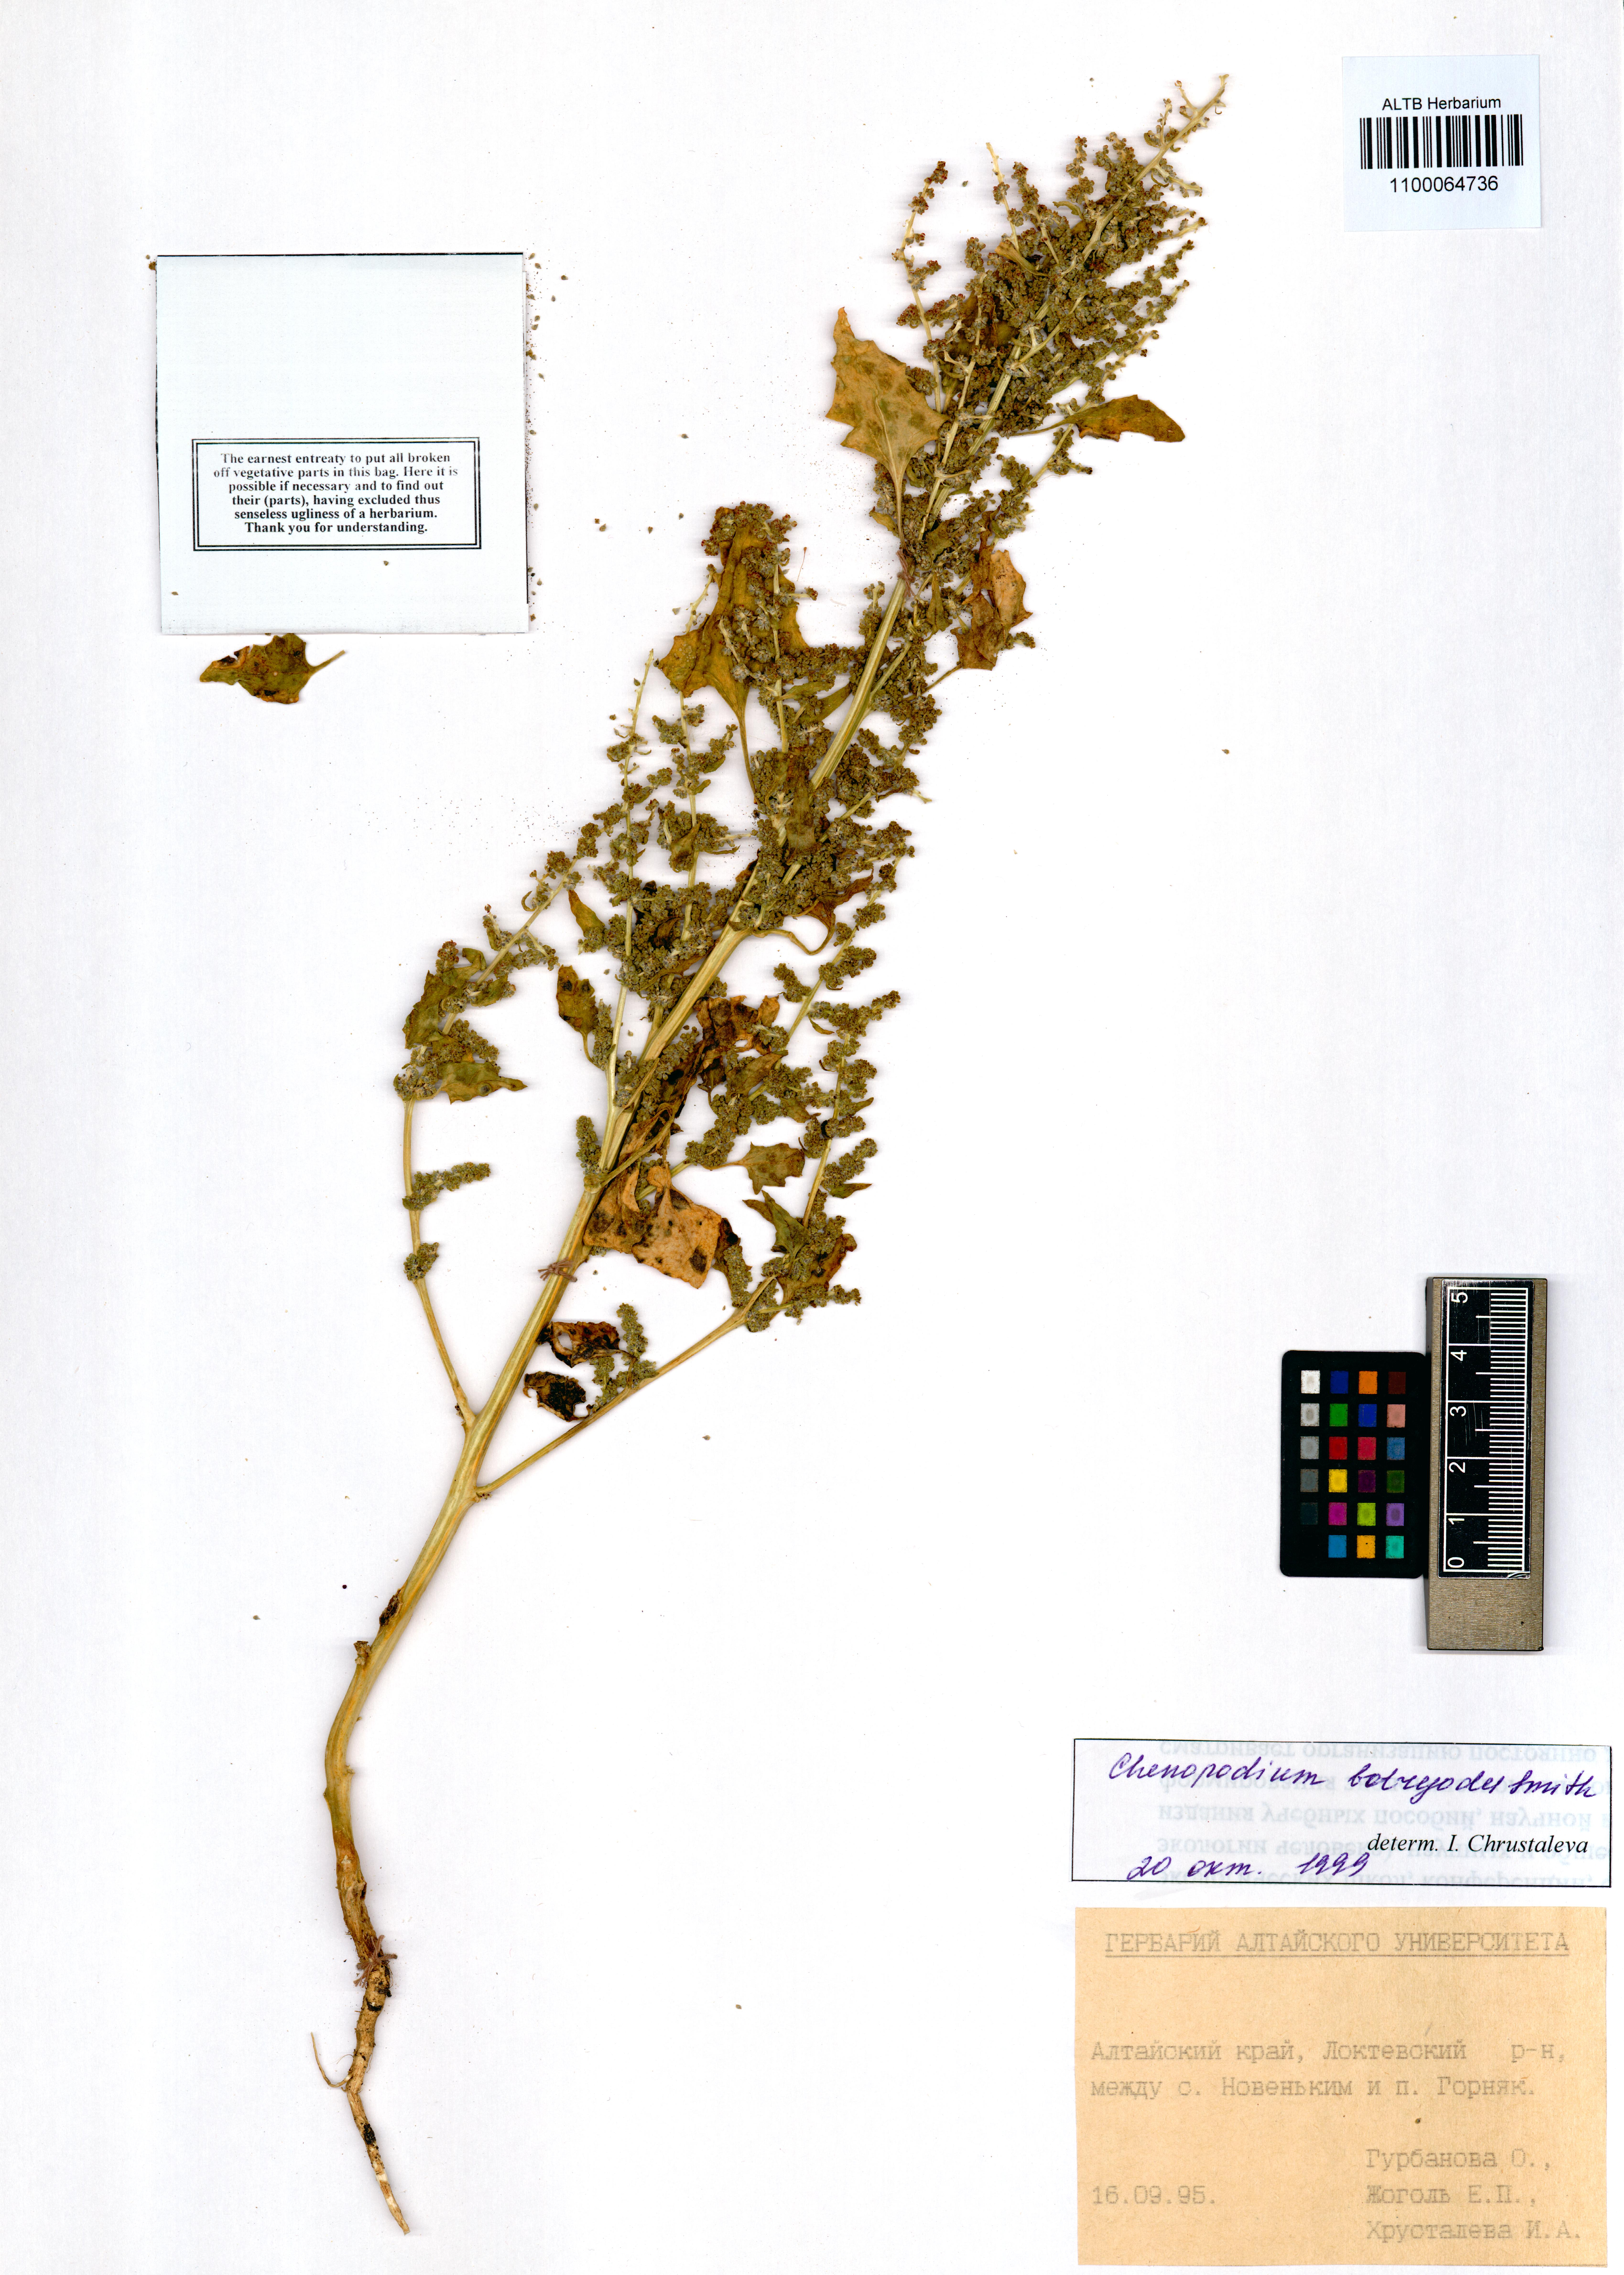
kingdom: Plantae
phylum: Tracheophyta
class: Magnoliopsida
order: Caryophyllales
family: Amaranthaceae
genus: Oxybasis
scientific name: Oxybasis chenopodioides
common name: Saltmarsh goosefoot
